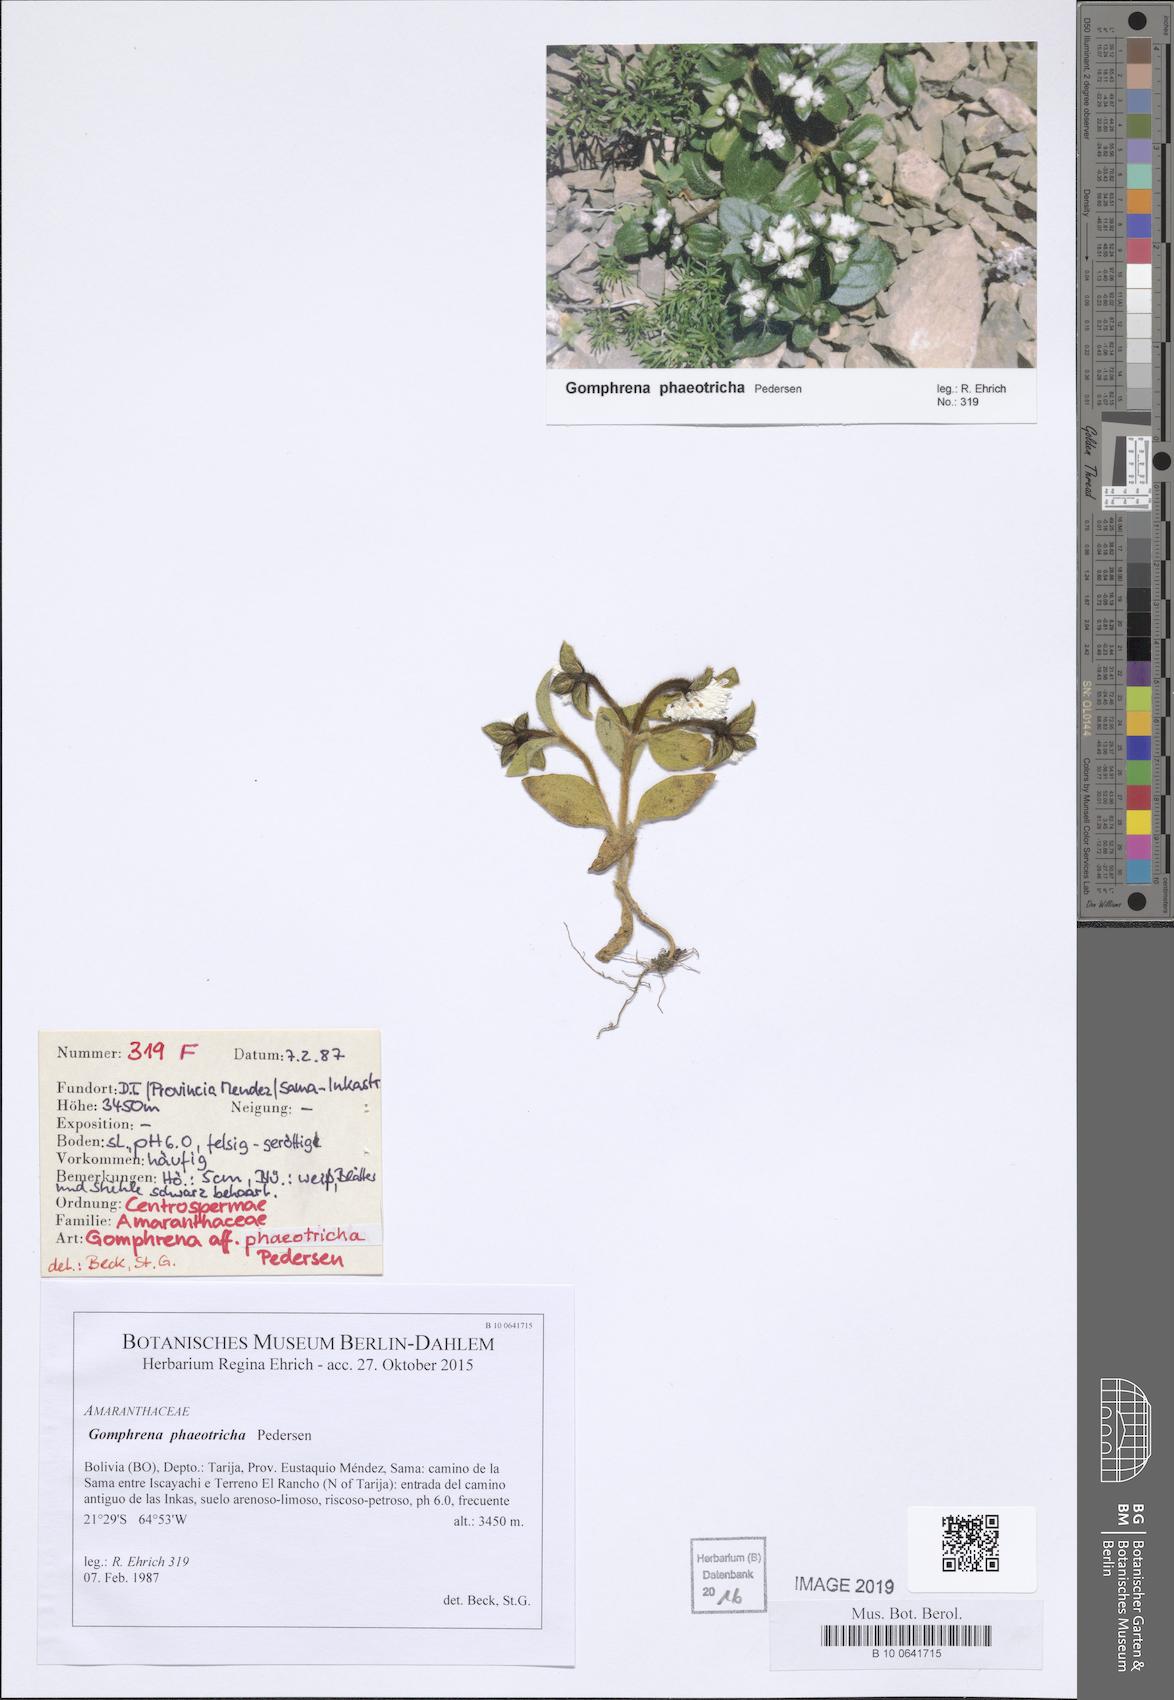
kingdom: Plantae
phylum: Tracheophyta
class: Magnoliopsida
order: Caryophyllales
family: Amaranthaceae
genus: Gomphrena
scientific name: Gomphrena phaeotricha
